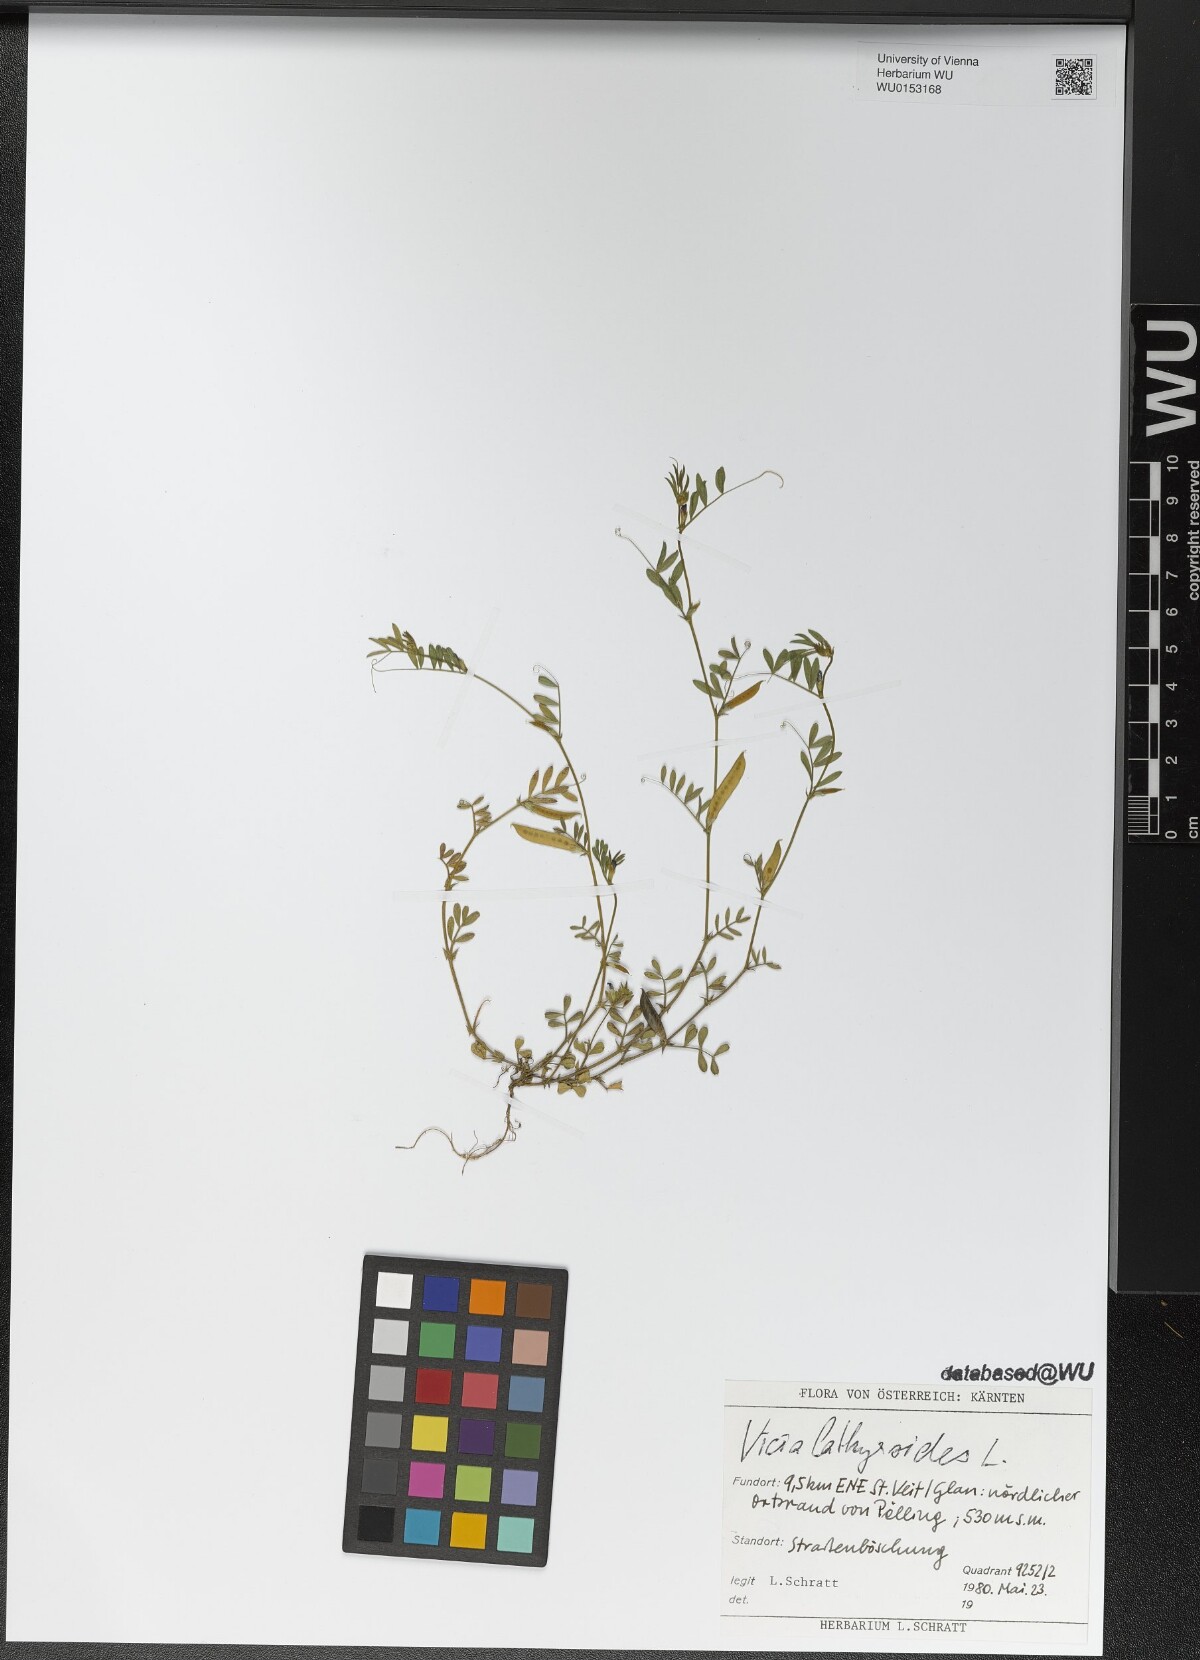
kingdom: Plantae
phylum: Tracheophyta
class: Magnoliopsida
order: Fabales
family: Fabaceae
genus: Vicia
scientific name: Vicia lathyroides
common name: Spring vetch
